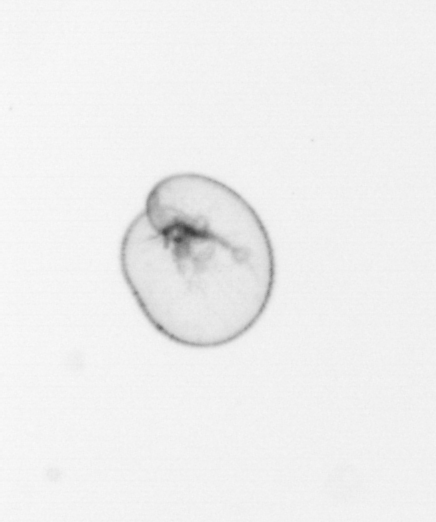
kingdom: Chromista
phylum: Myzozoa
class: Dinophyceae
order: Noctilucales
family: Noctilucaceae
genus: Noctiluca
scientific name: Noctiluca scintillans
